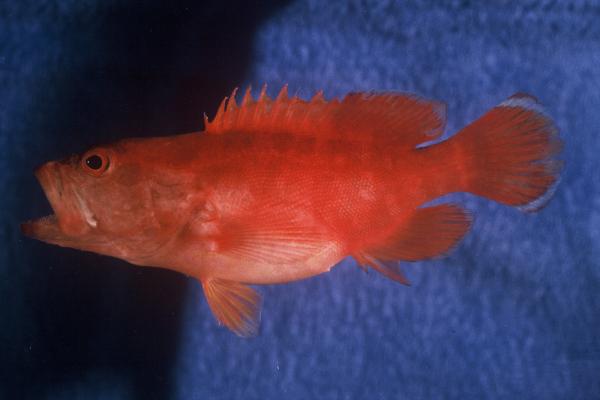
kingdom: Animalia
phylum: Chordata
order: Perciformes
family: Serranidae
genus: Cephalopholis
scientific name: Cephalopholis spiloparaea
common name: Strawberry grouper
